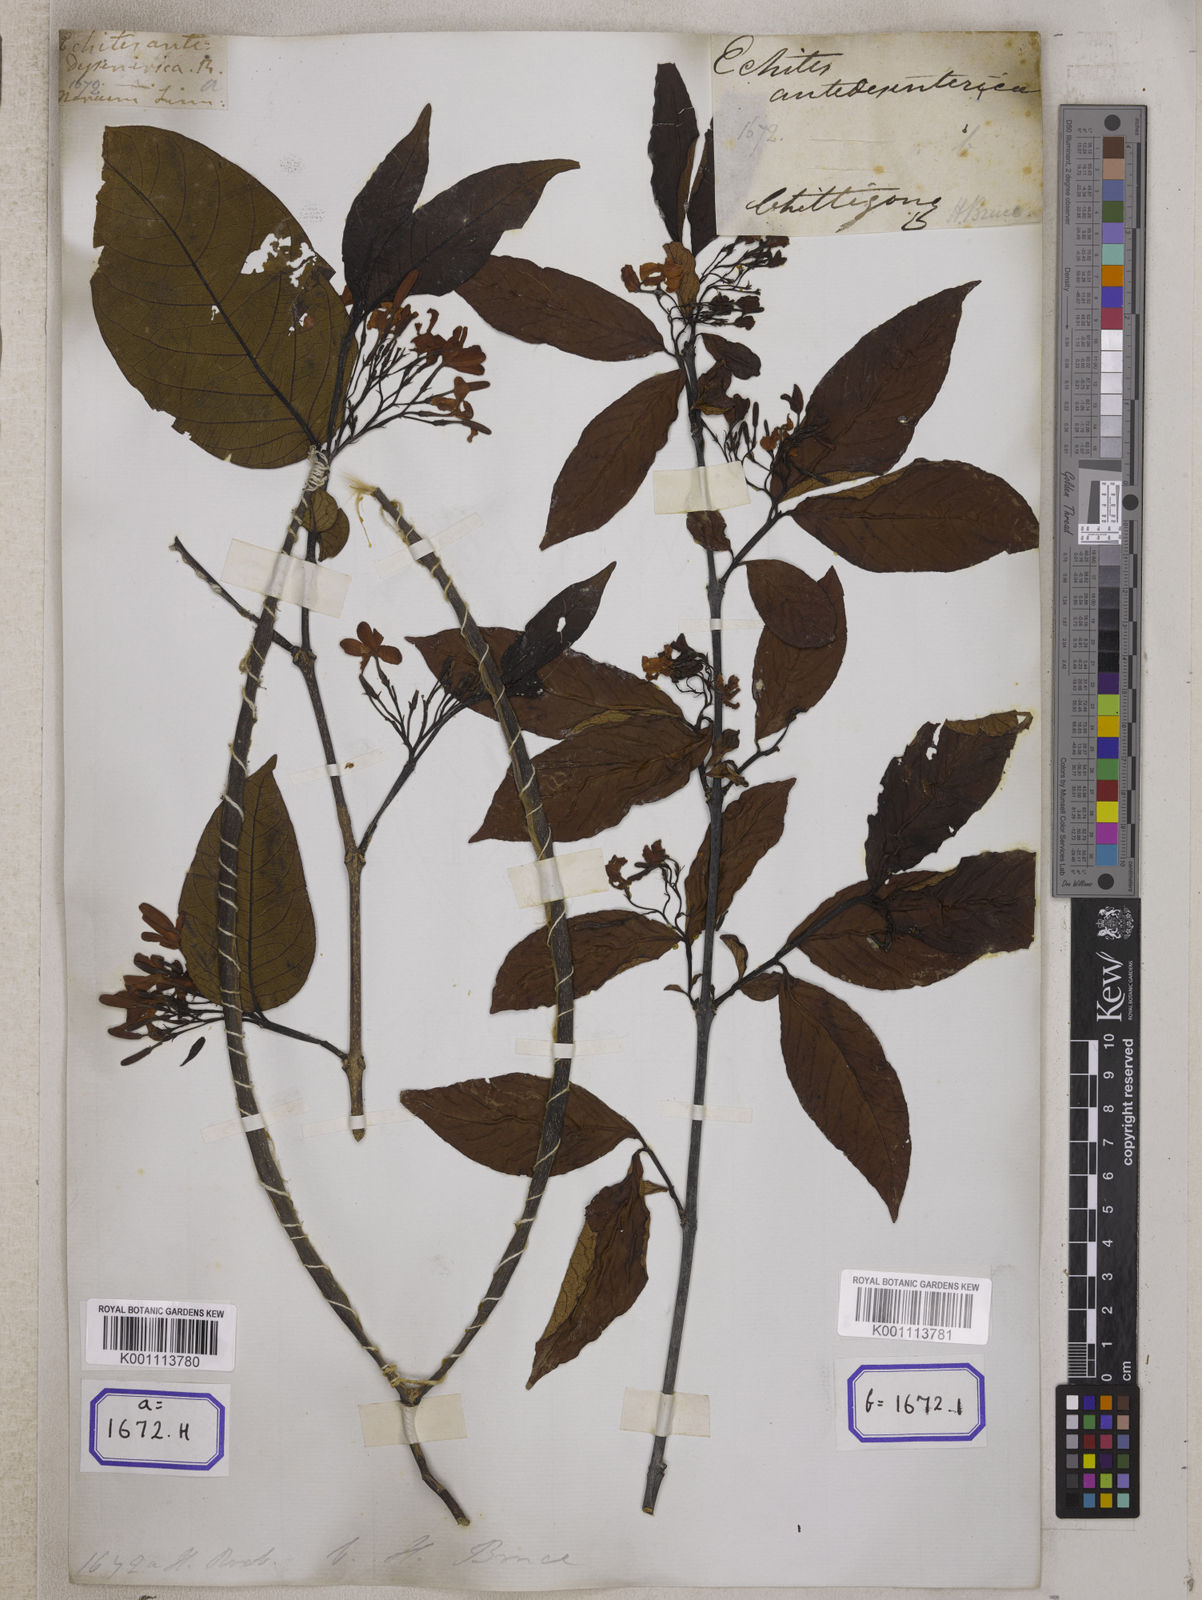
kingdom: Plantae
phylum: Tracheophyta
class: Magnoliopsida
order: Gentianales
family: Apocynaceae
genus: Holarrhena
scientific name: Holarrhena pubescens
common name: Bitter oleander
